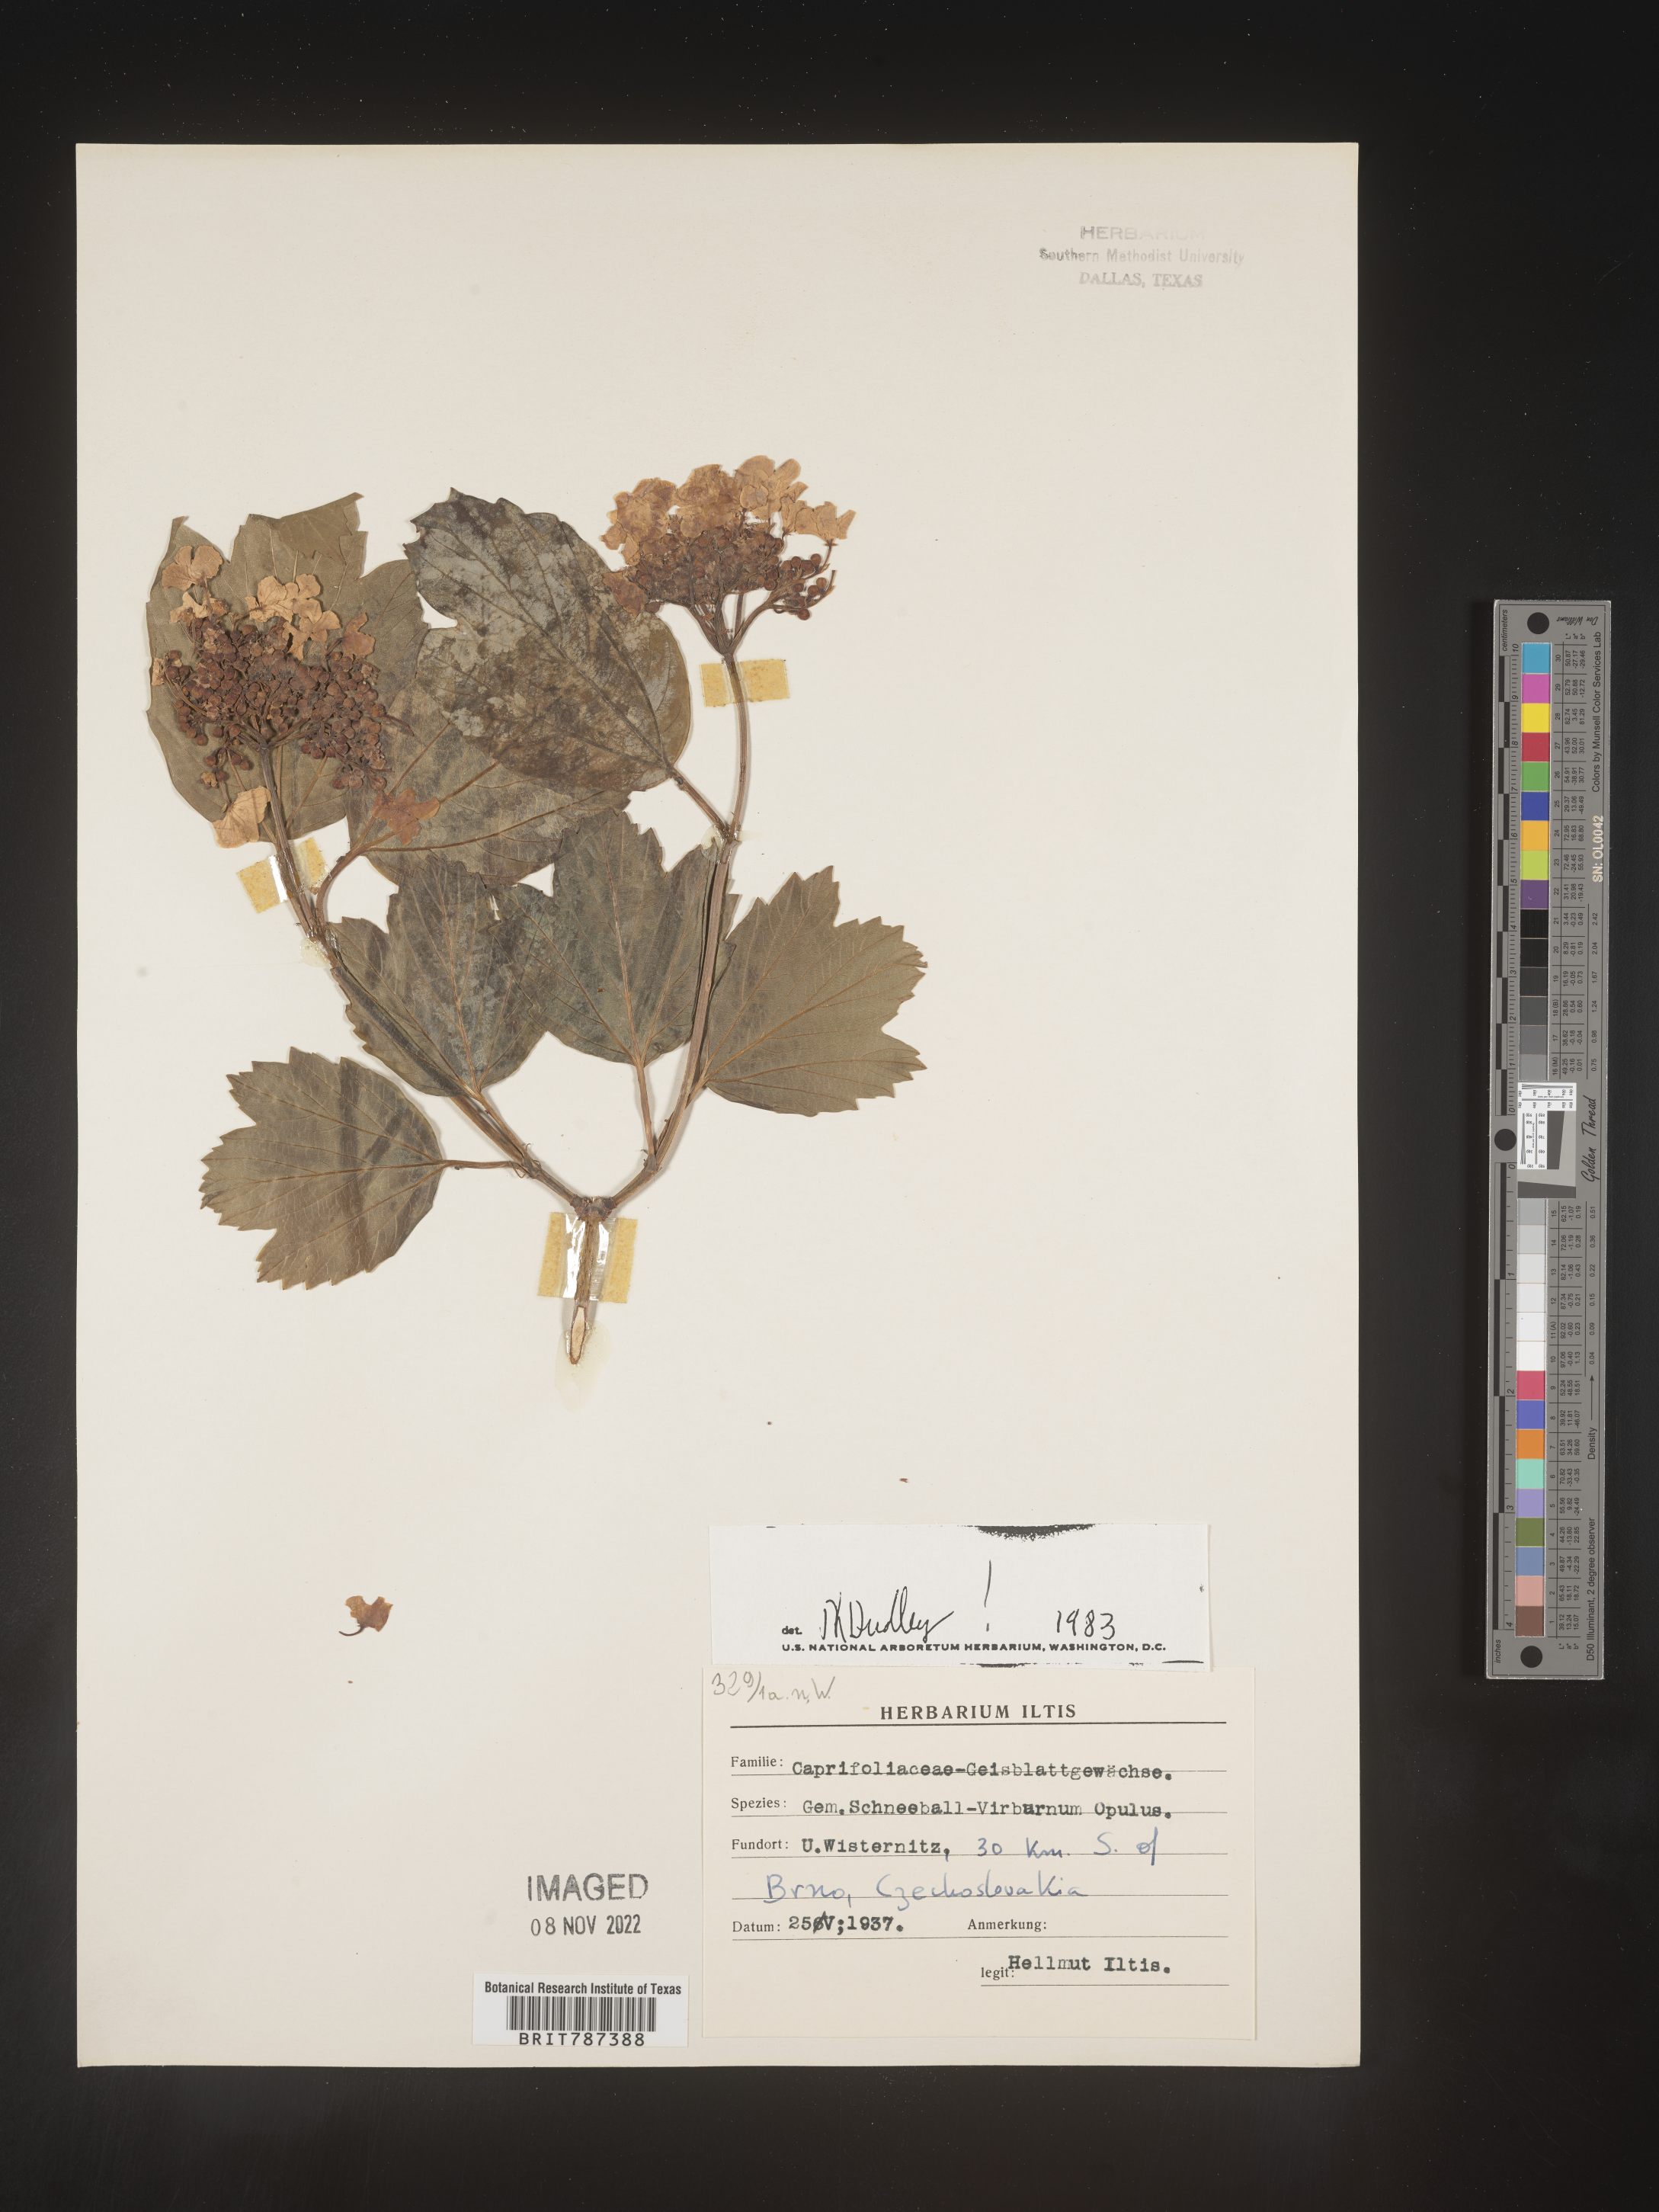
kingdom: Plantae
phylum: Tracheophyta
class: Magnoliopsida
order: Dipsacales
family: Viburnaceae
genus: Viburnum
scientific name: Viburnum opulus
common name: Guelder-rose
